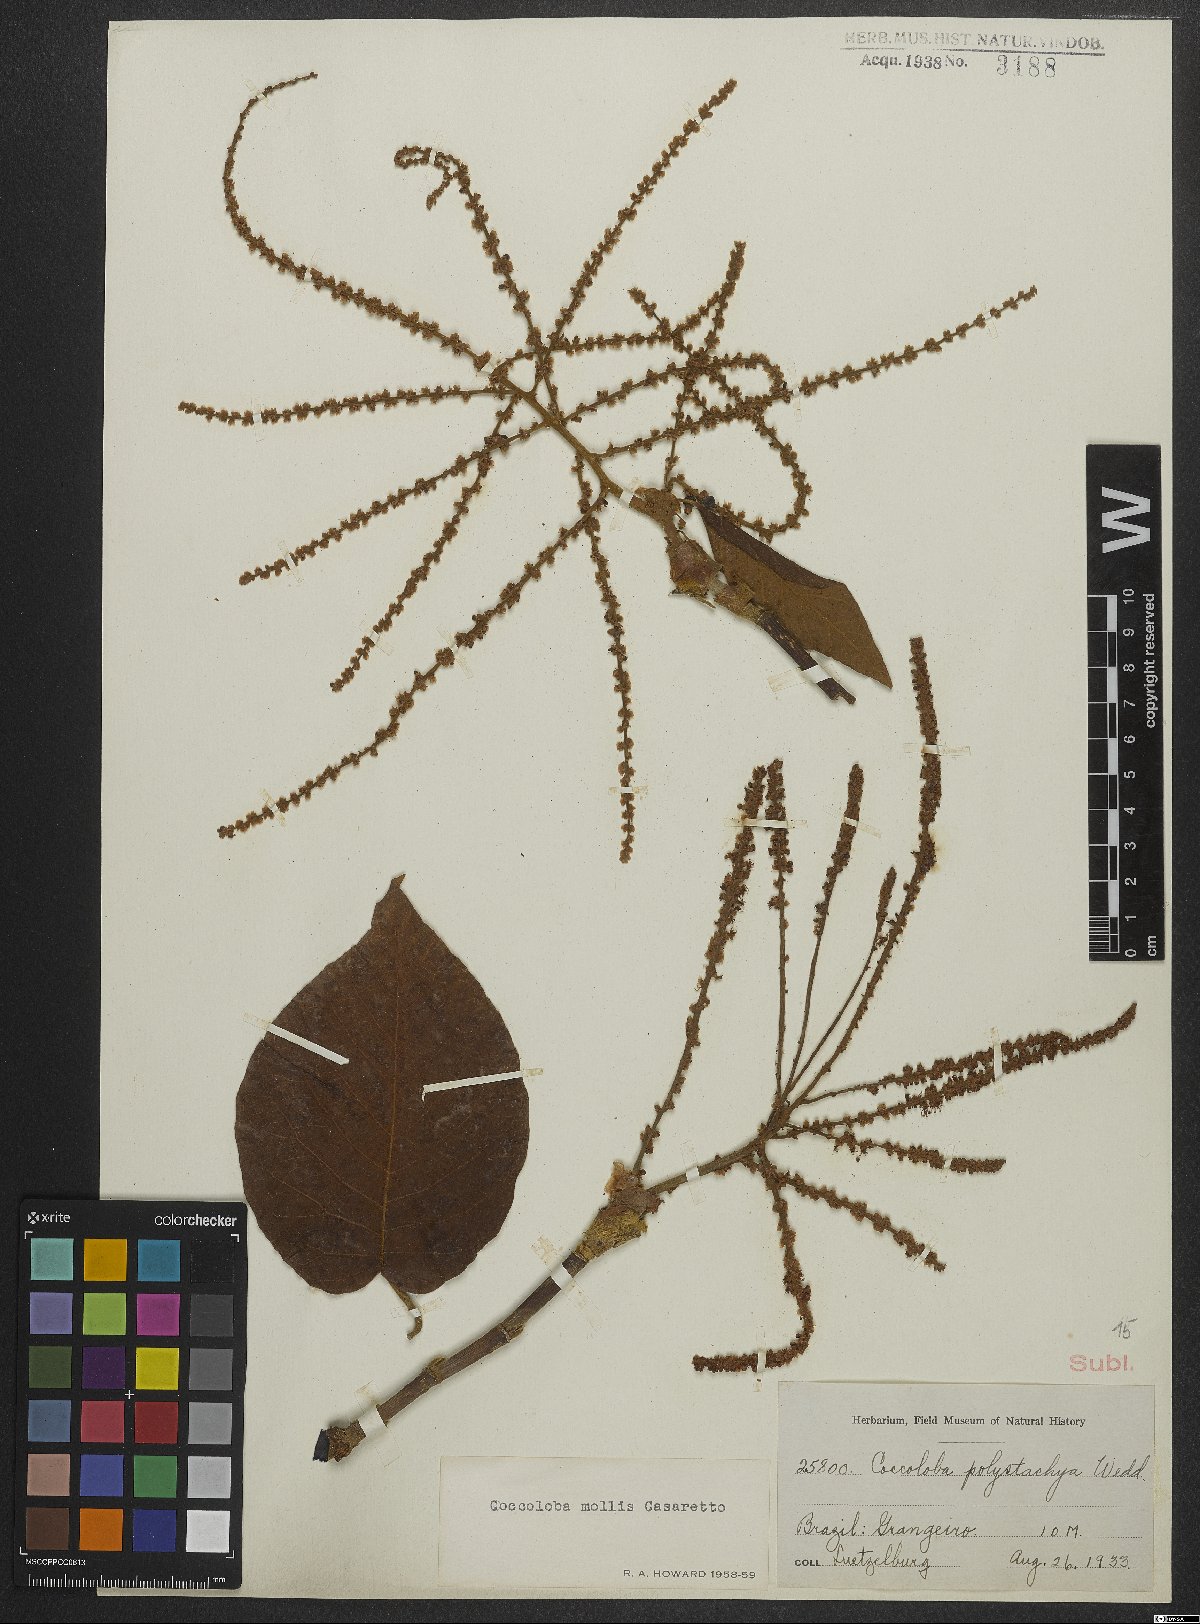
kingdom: Plantae
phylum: Tracheophyta
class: Magnoliopsida
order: Caryophyllales
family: Polygonaceae
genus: Coccoloba
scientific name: Coccoloba mollis
